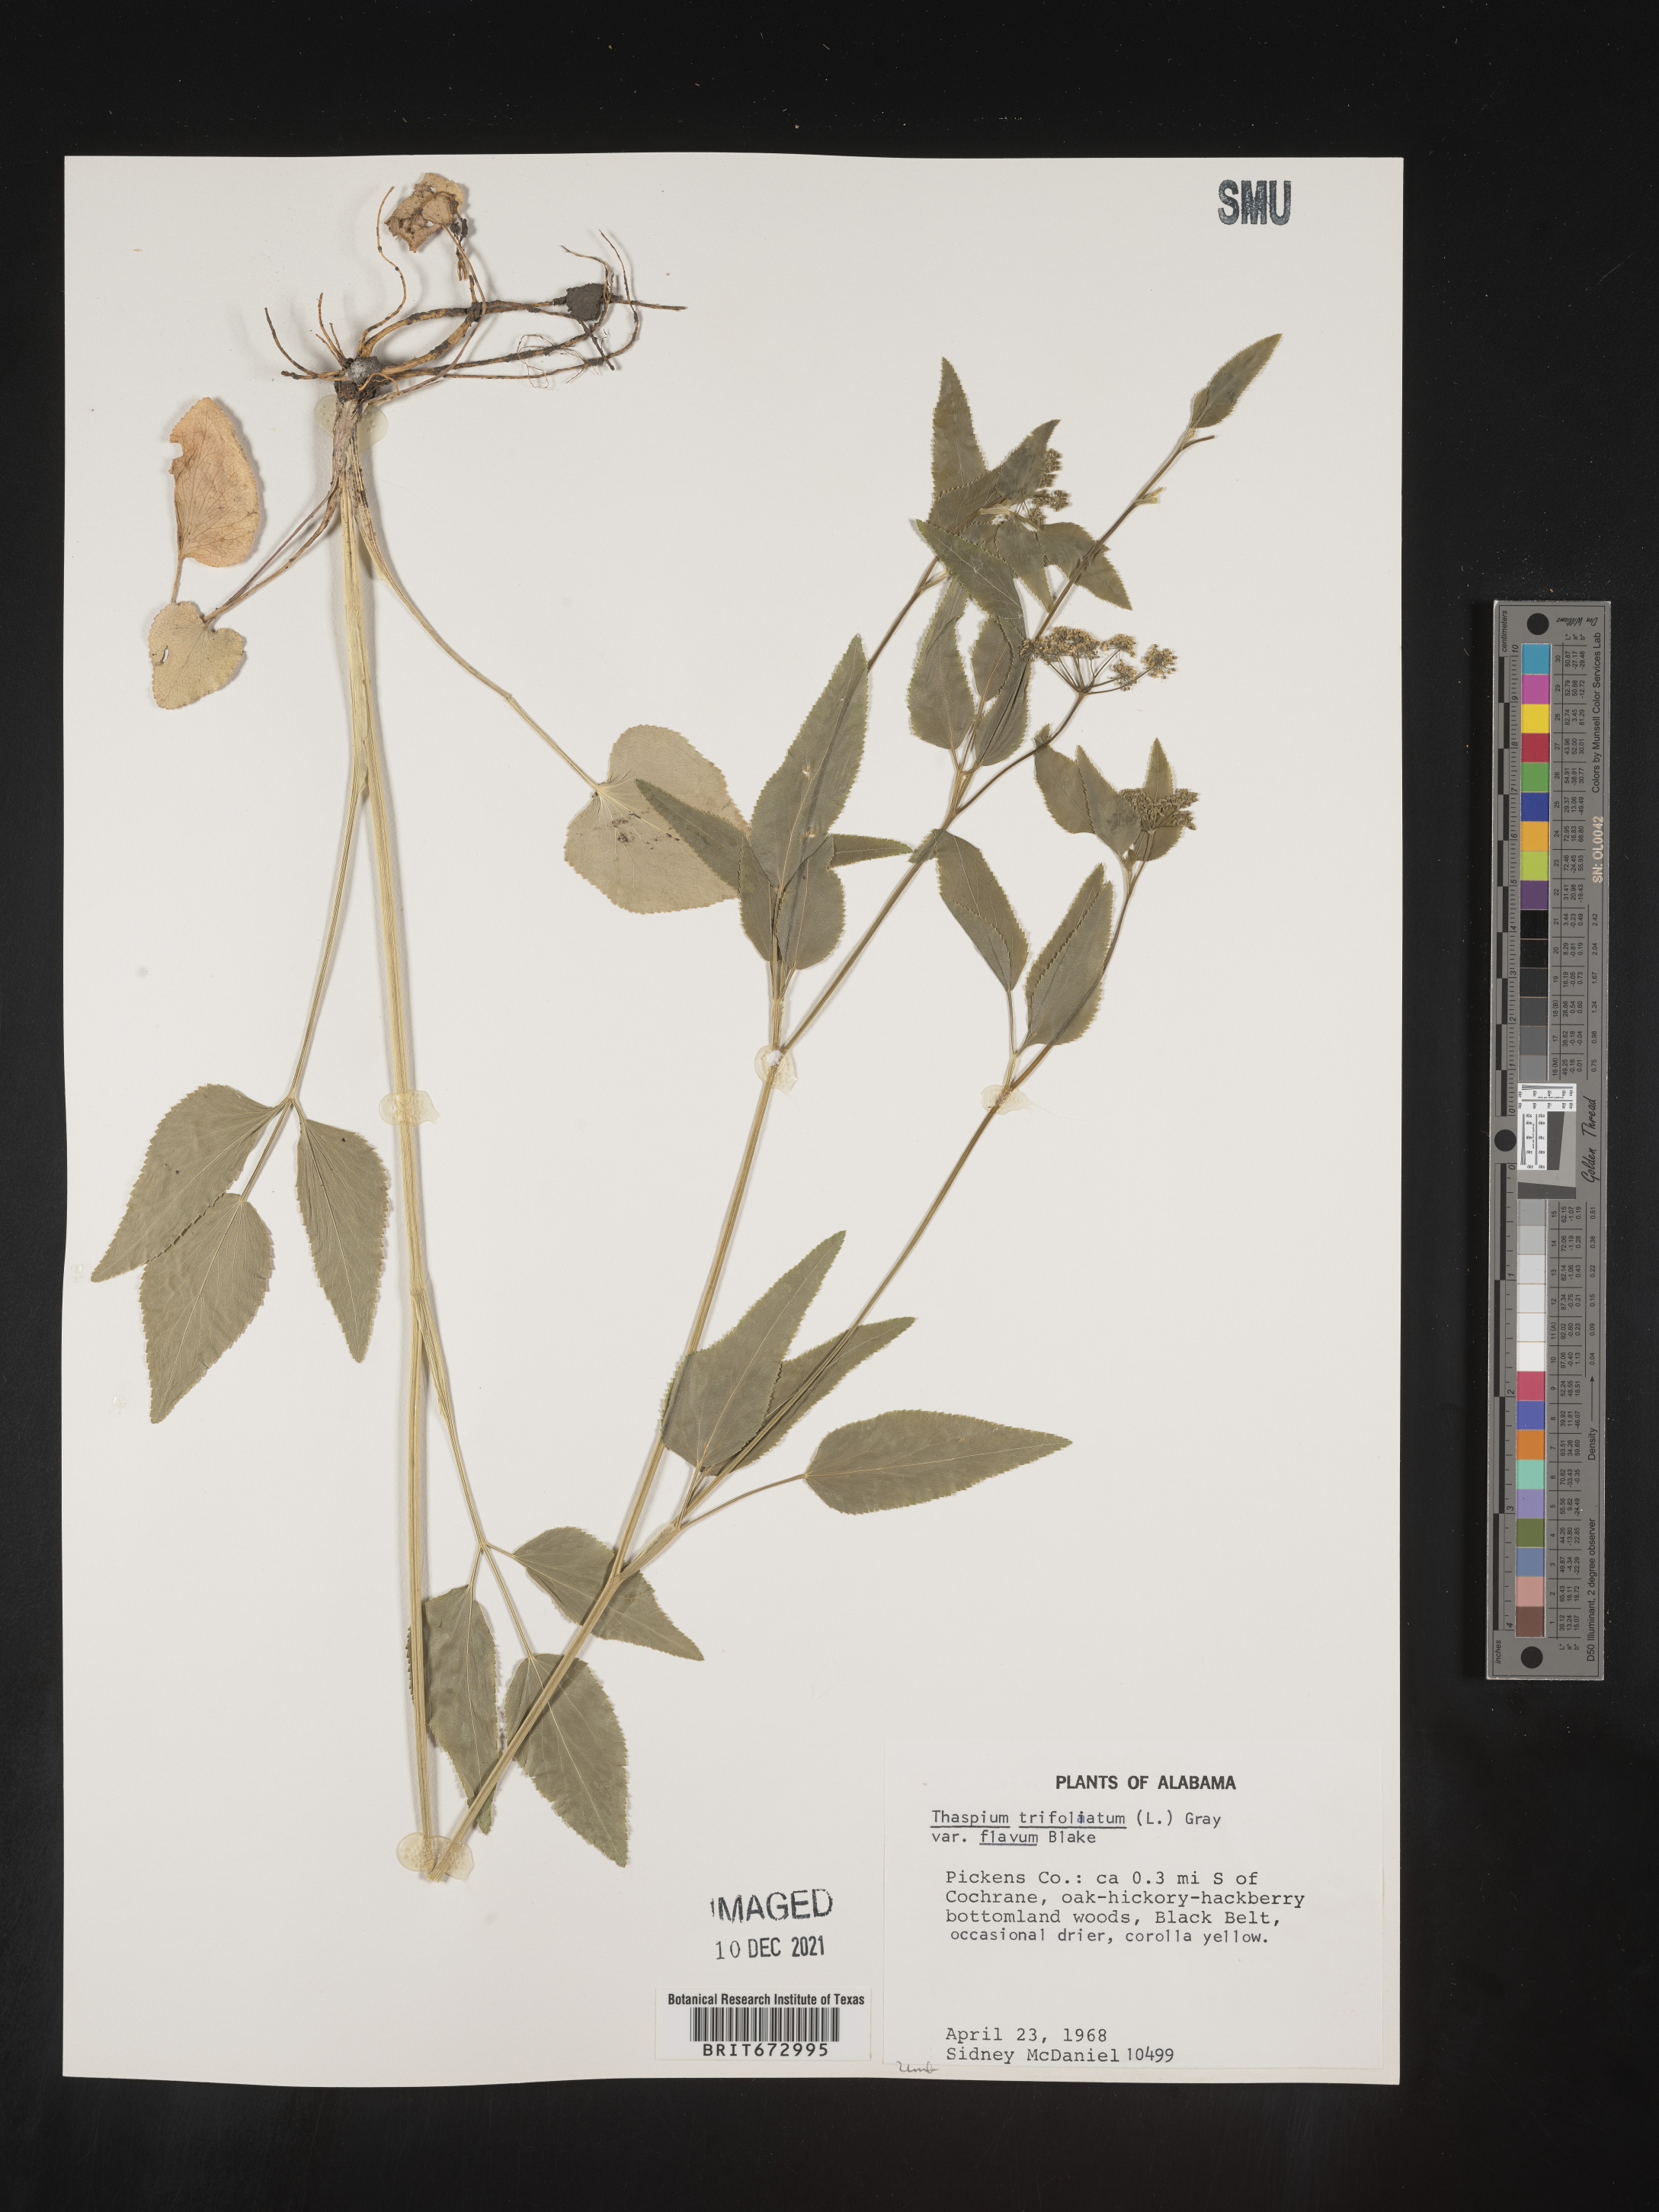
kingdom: Plantae
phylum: Tracheophyta
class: Magnoliopsida
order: Apiales
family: Apiaceae
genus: Thaspium
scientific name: Thaspium
